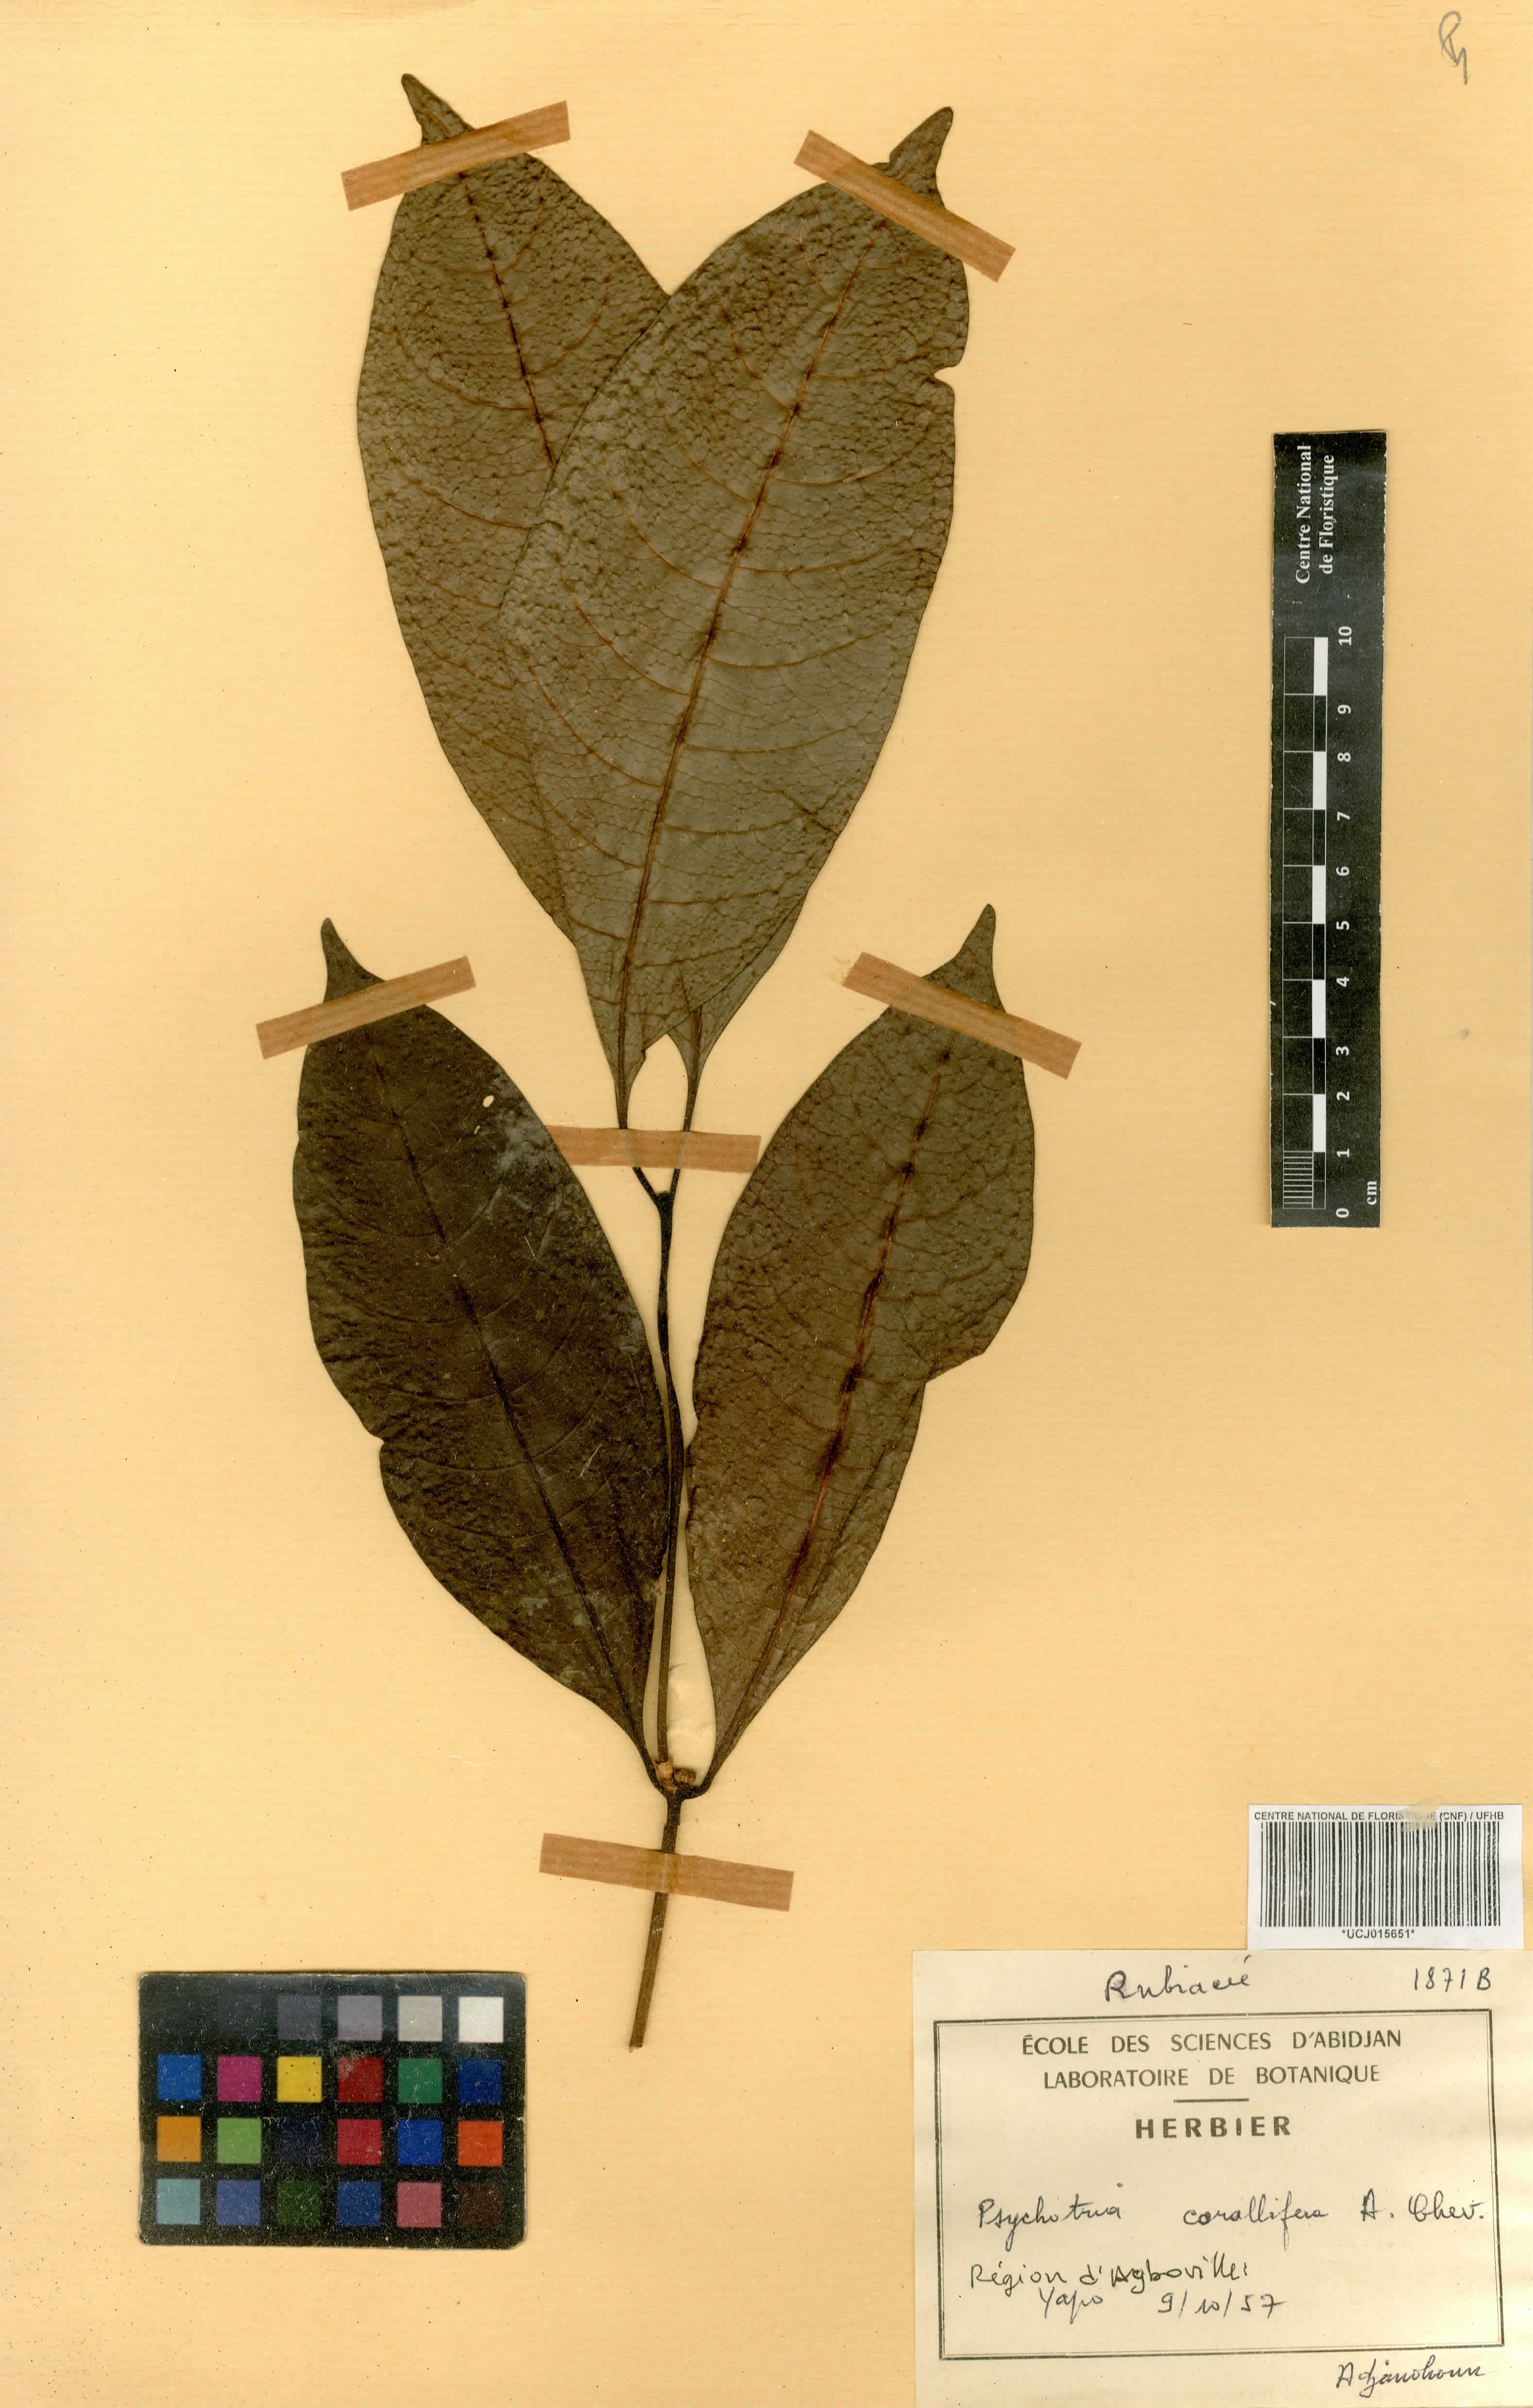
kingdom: Plantae
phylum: Tracheophyta
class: Magnoliopsida
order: Gentianales
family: Rubiaceae
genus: Psychotria
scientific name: Psychotria corallifera
